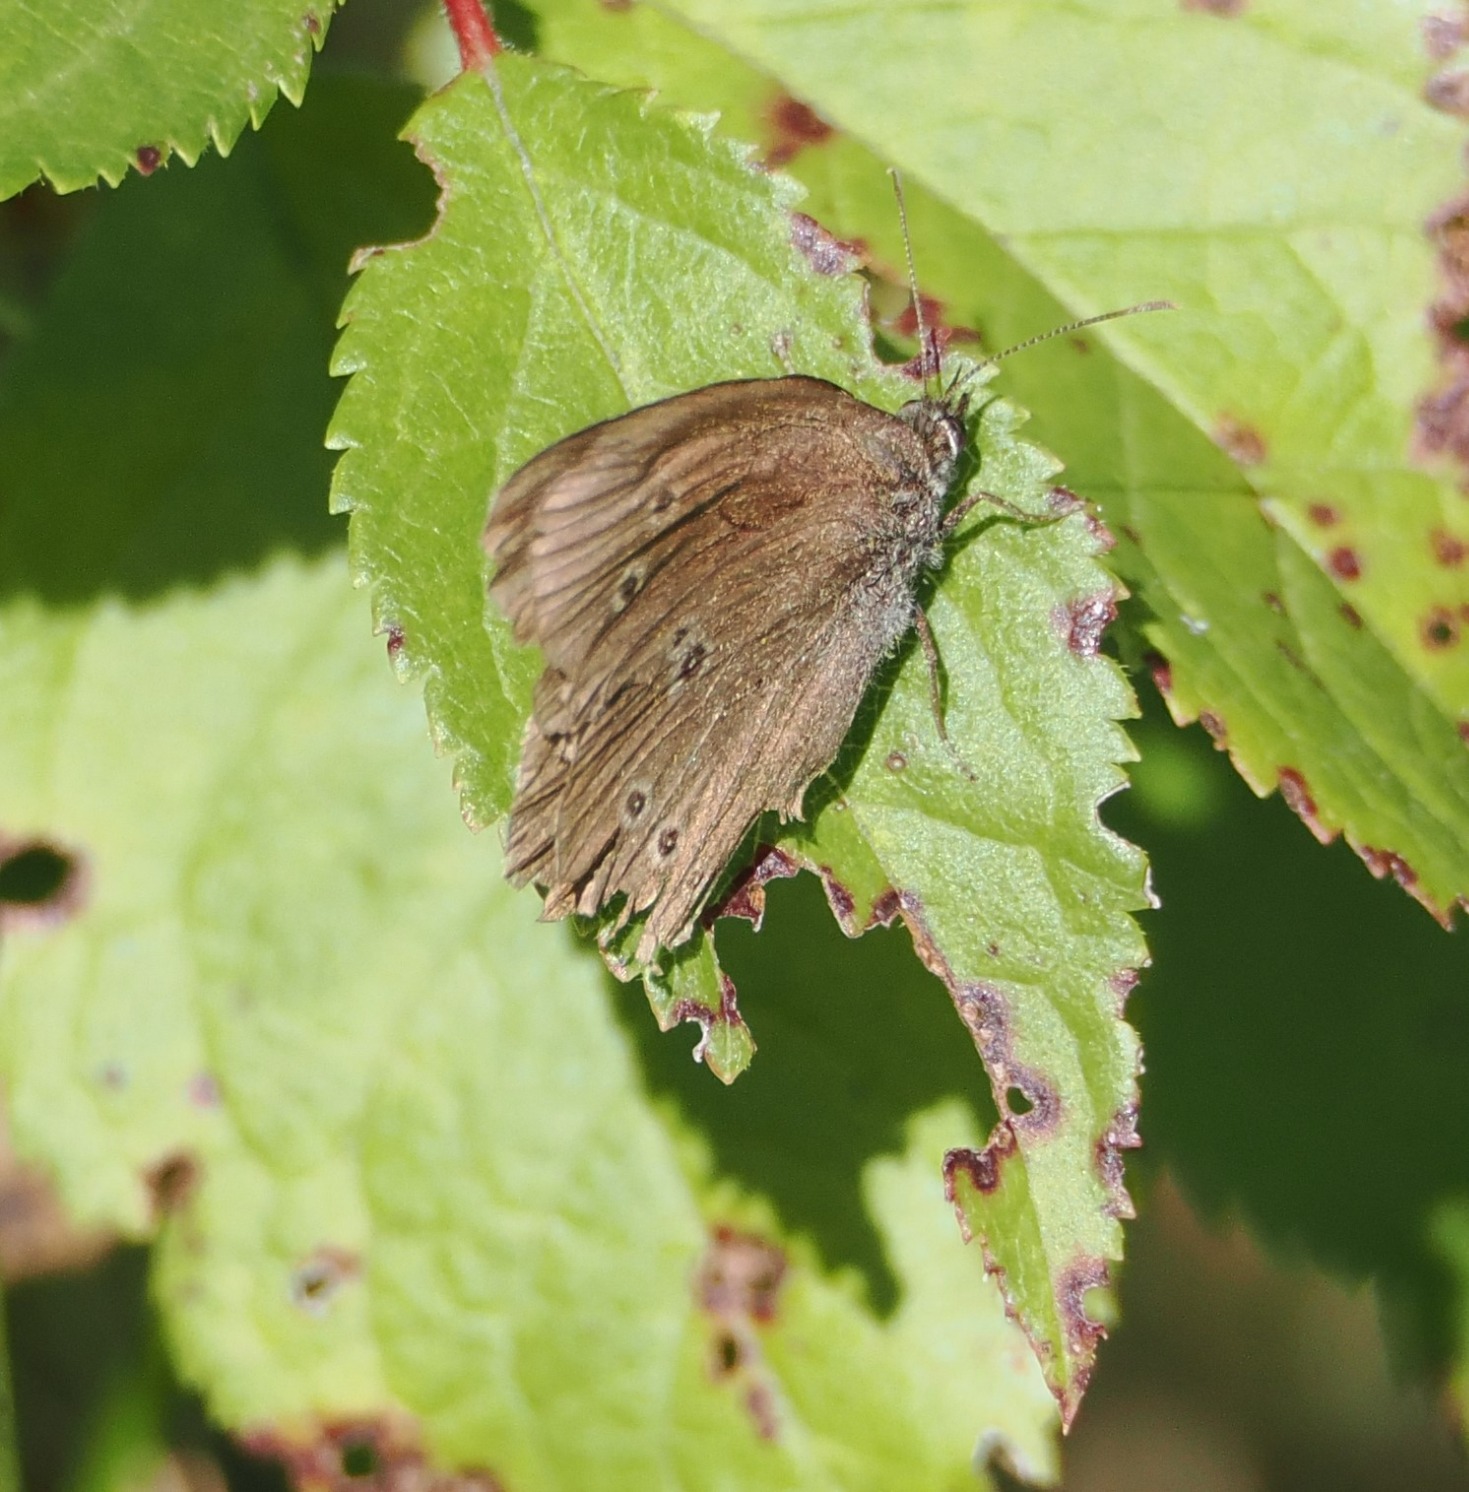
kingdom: Animalia
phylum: Arthropoda
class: Insecta
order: Lepidoptera
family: Nymphalidae
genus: Aphantopus
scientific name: Aphantopus hyperantus
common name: Engrandøje
